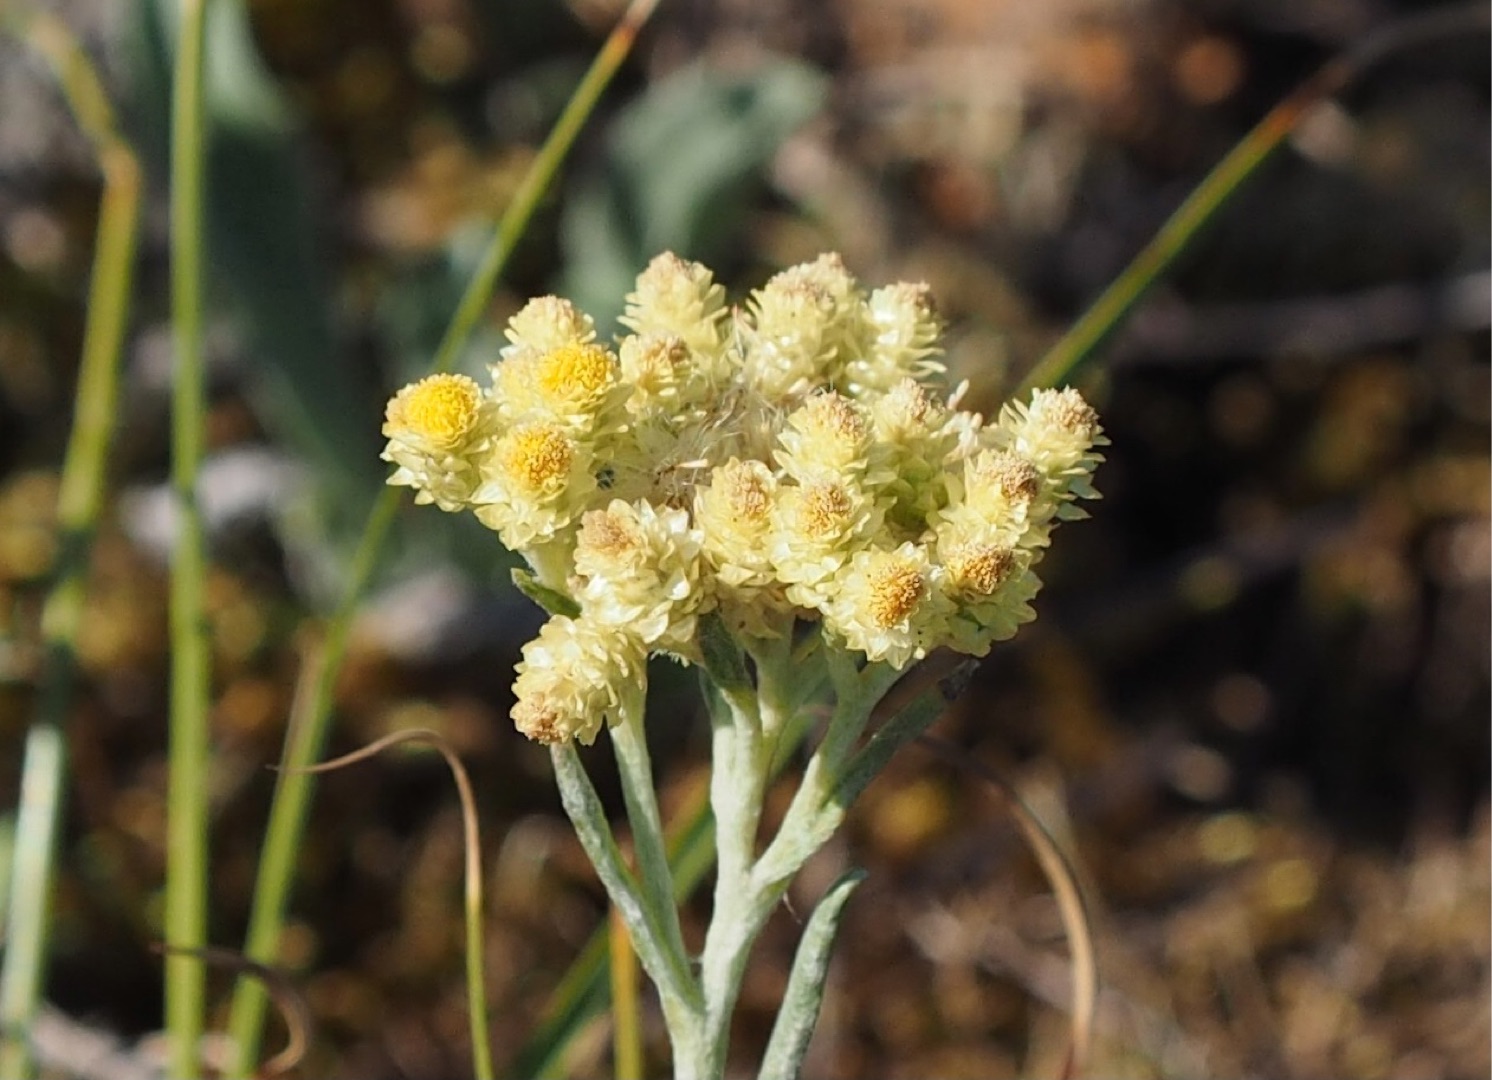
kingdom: Plantae
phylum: Tracheophyta
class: Magnoliopsida
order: Asterales
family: Asteraceae
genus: Helichrysum
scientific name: Helichrysum arenarium
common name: Gul evighedsblomst
